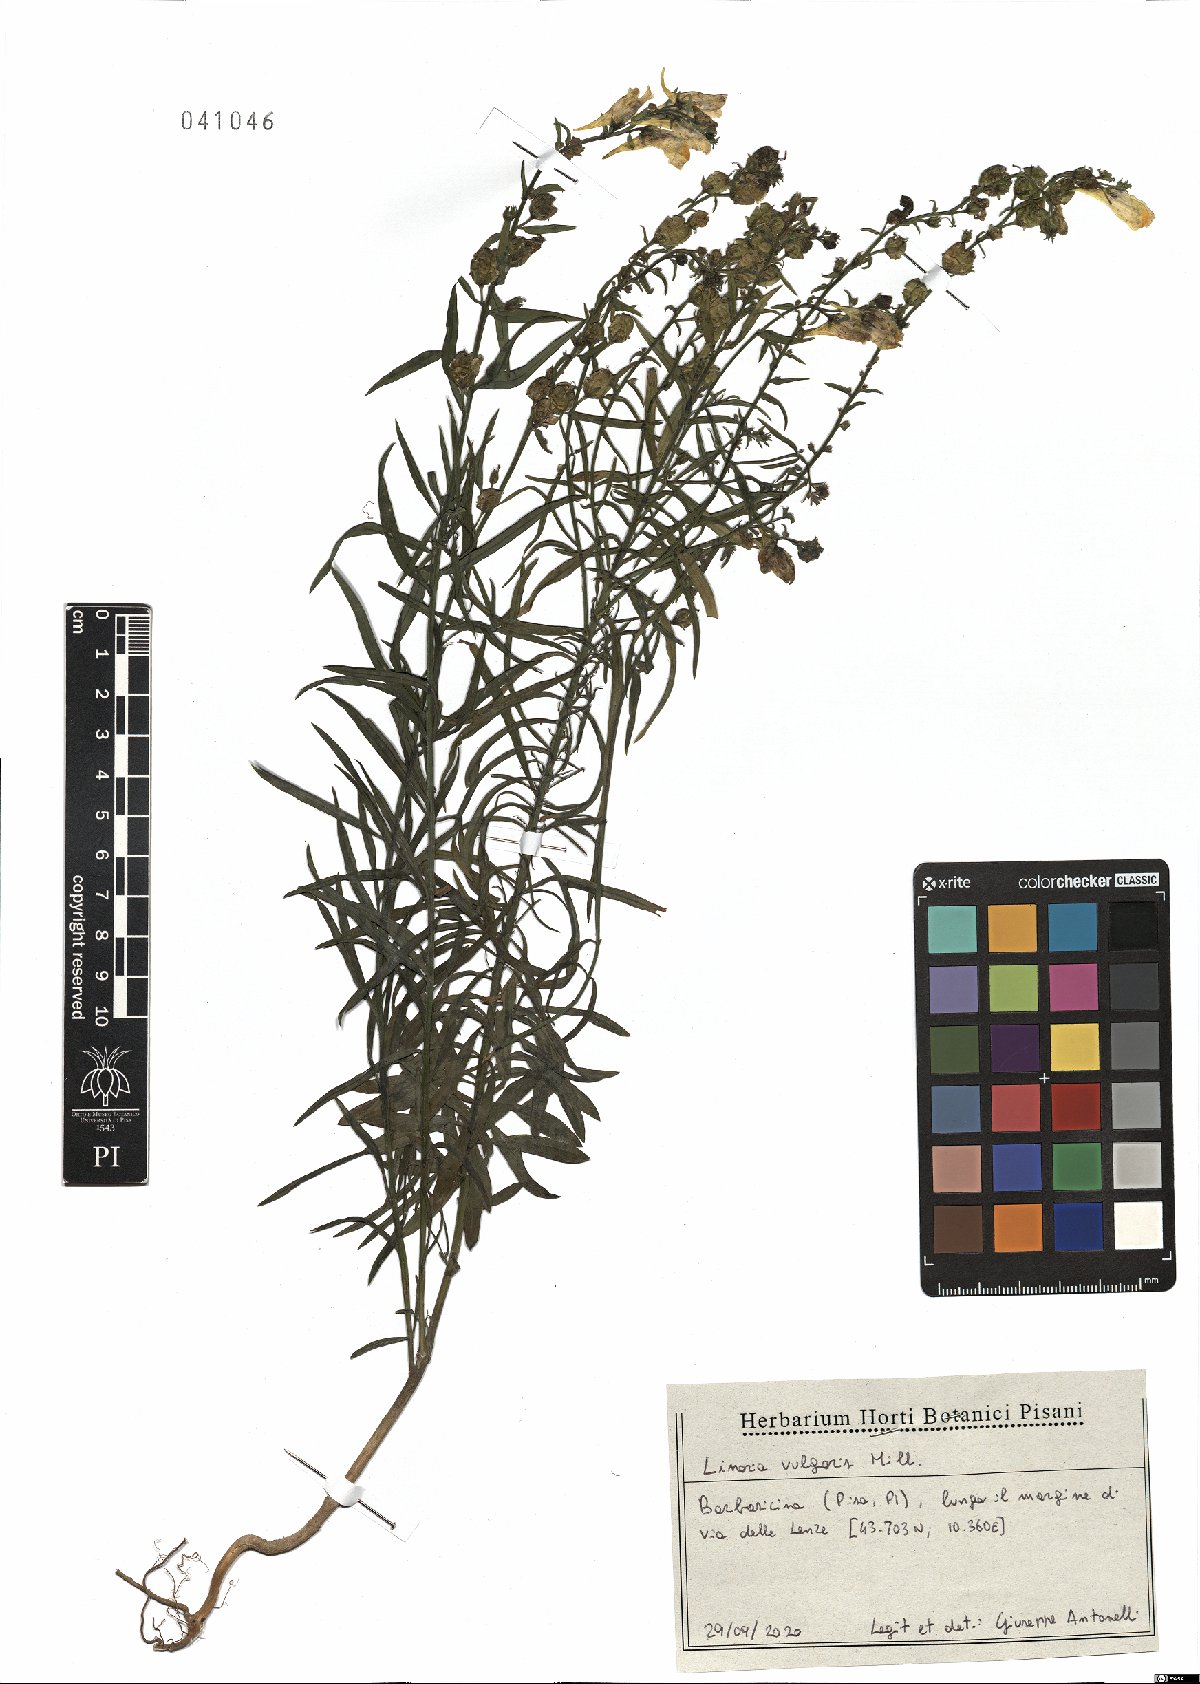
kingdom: Plantae
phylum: Tracheophyta
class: Magnoliopsida
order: Lamiales
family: Plantaginaceae
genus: Linaria
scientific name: Linaria vulgaris
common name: Butter and eggs
